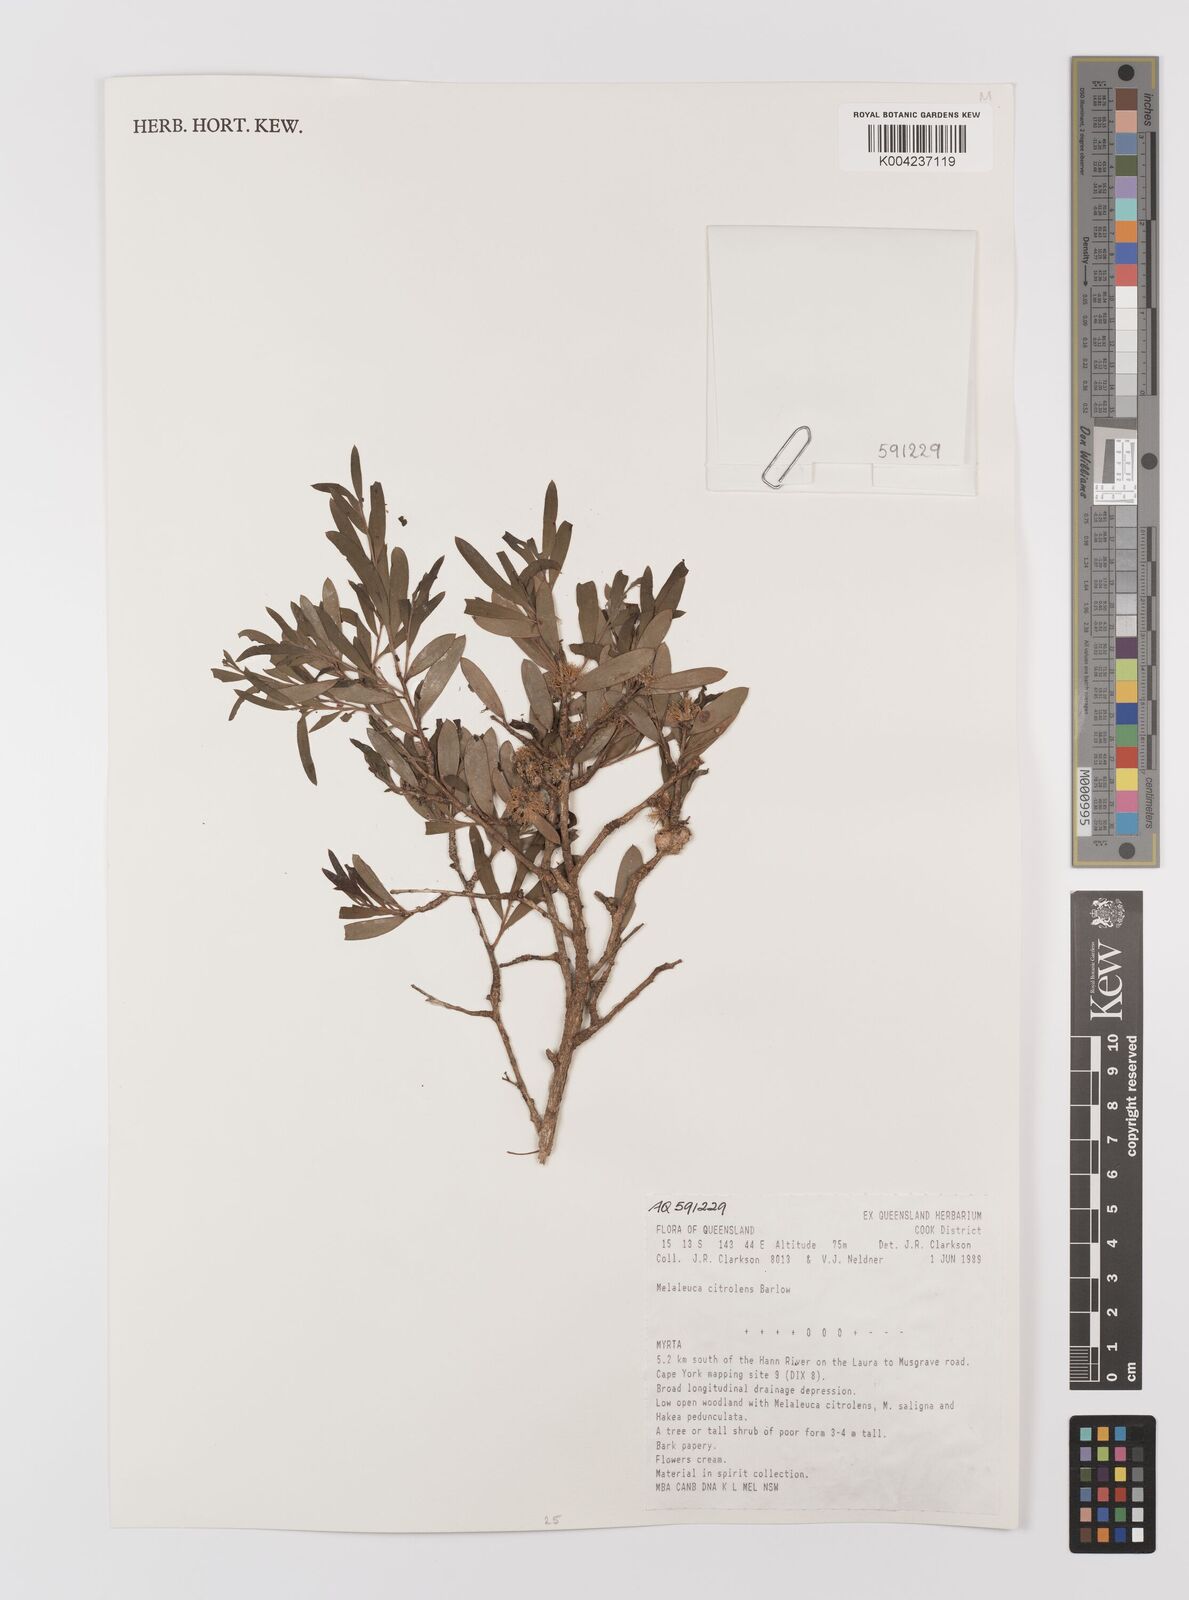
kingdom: Plantae
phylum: Tracheophyta
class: Magnoliopsida
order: Myrtales
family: Myrtaceae
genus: Melaleuca
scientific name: Melaleuca citrolens
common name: Lemon-scented paperbark
